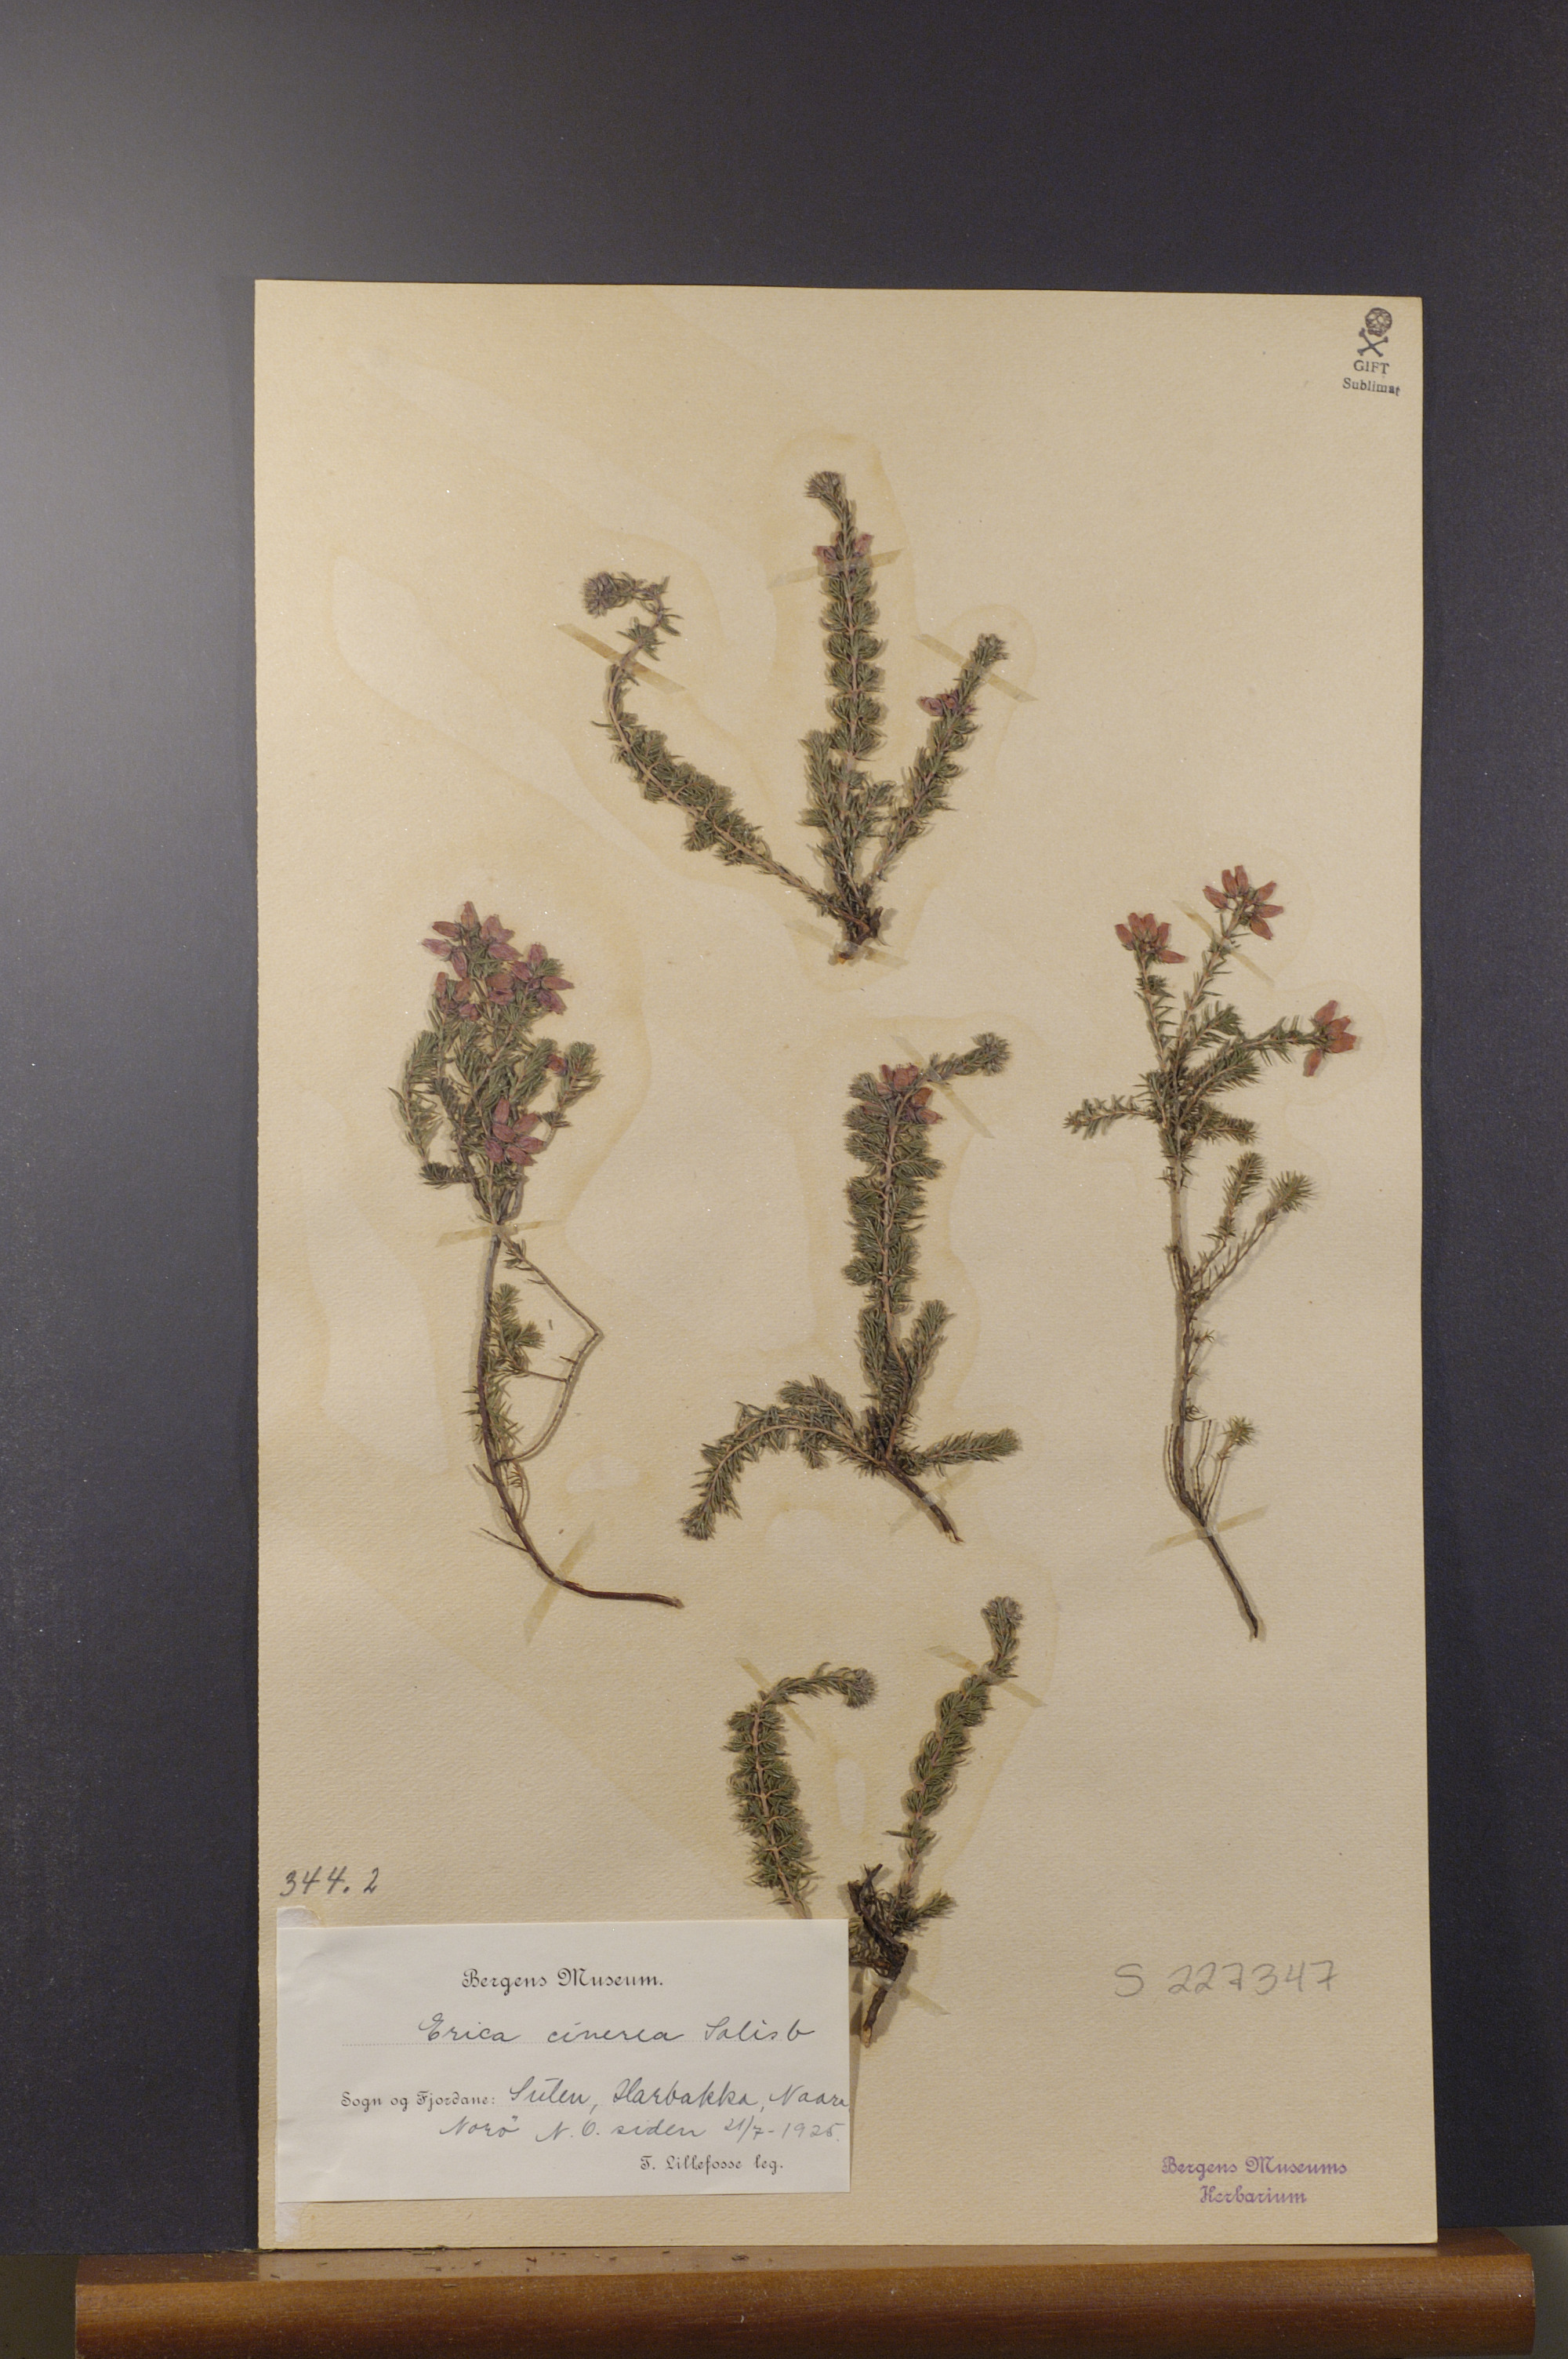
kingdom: Plantae
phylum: Tracheophyta
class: Magnoliopsida
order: Ericales
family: Ericaceae
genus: Erica
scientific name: Erica cinerea
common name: Bell heather
